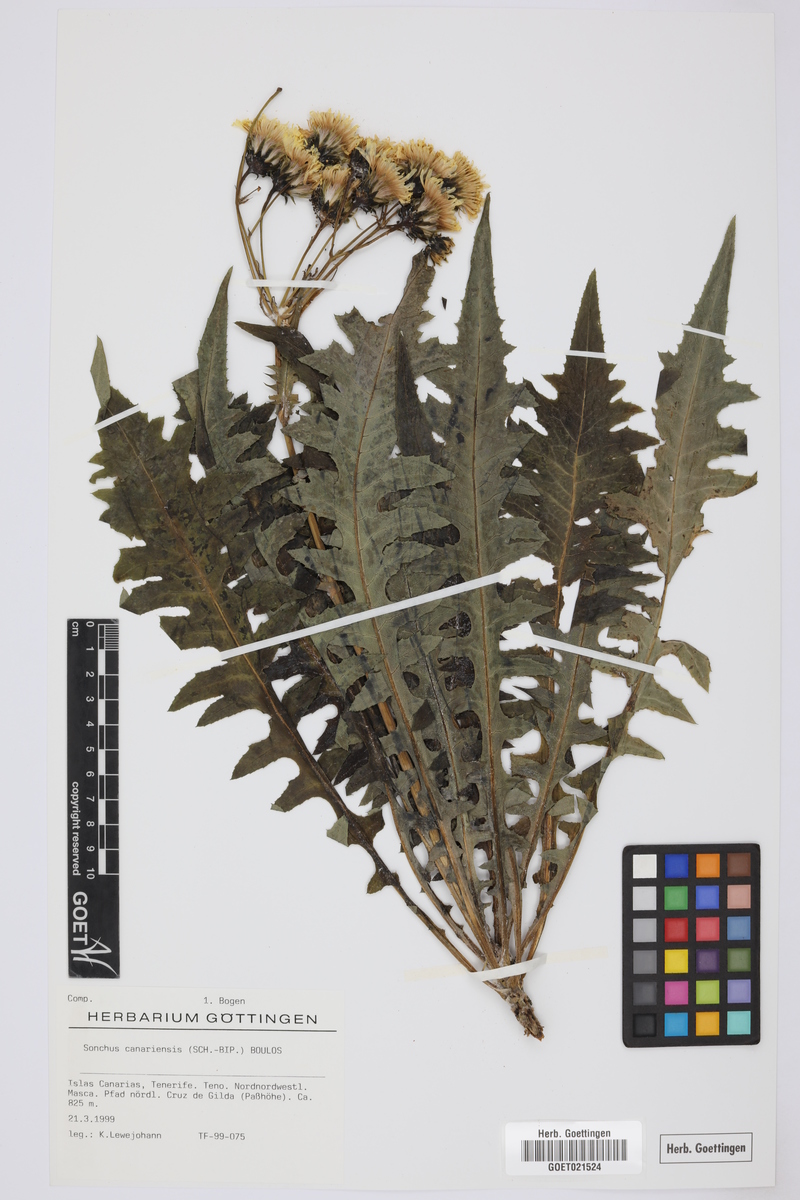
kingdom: Plantae
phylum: Tracheophyta
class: Magnoliopsida
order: Asterales
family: Asteraceae
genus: Sonchus
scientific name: Sonchus canariensis
